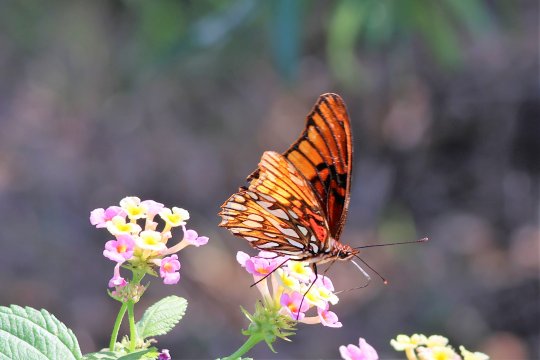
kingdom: Animalia
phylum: Arthropoda
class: Insecta
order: Lepidoptera
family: Nymphalidae
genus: Dione
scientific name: Dione moneta
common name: Mexican Silverspot
